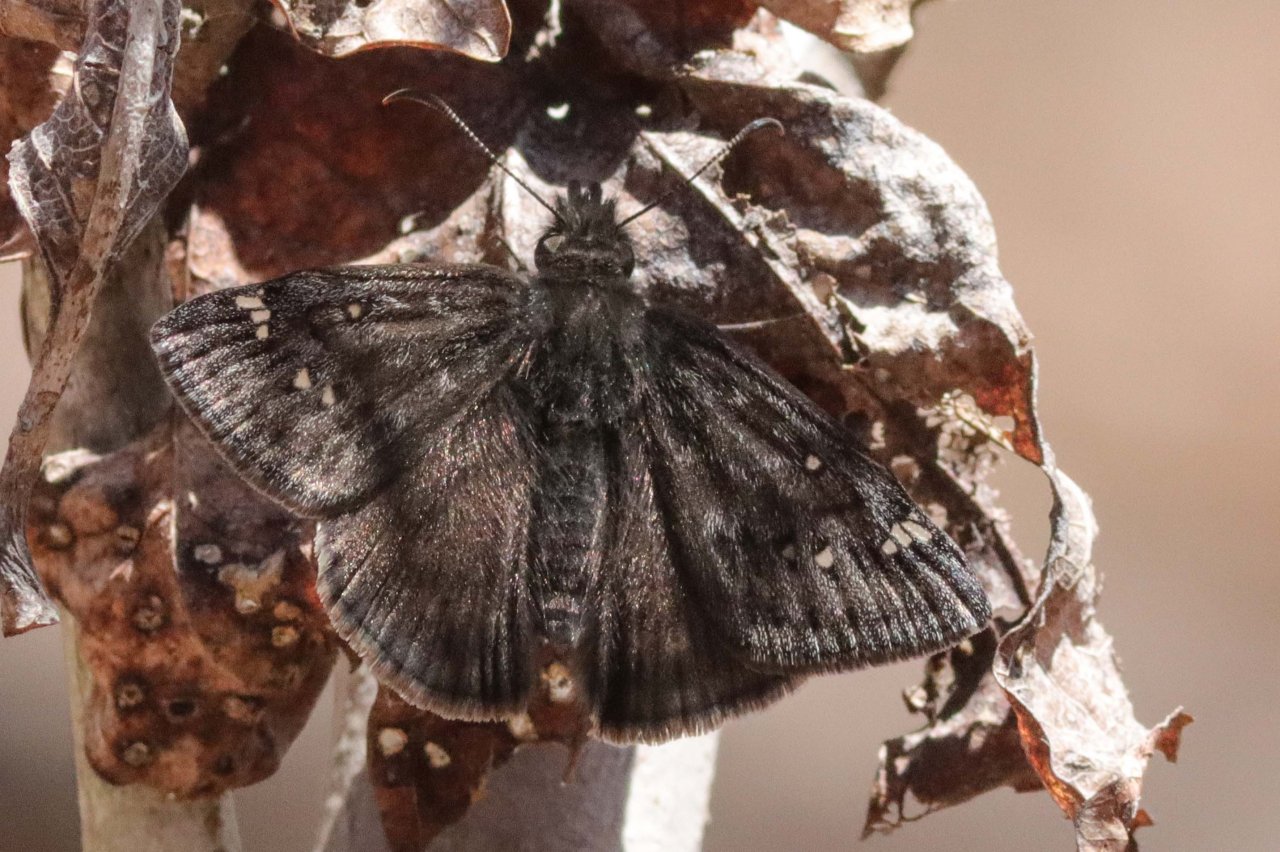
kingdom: Animalia
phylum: Arthropoda
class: Insecta
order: Lepidoptera
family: Hesperiidae
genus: Gesta
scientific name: Gesta
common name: Juvenal's Duskywing
